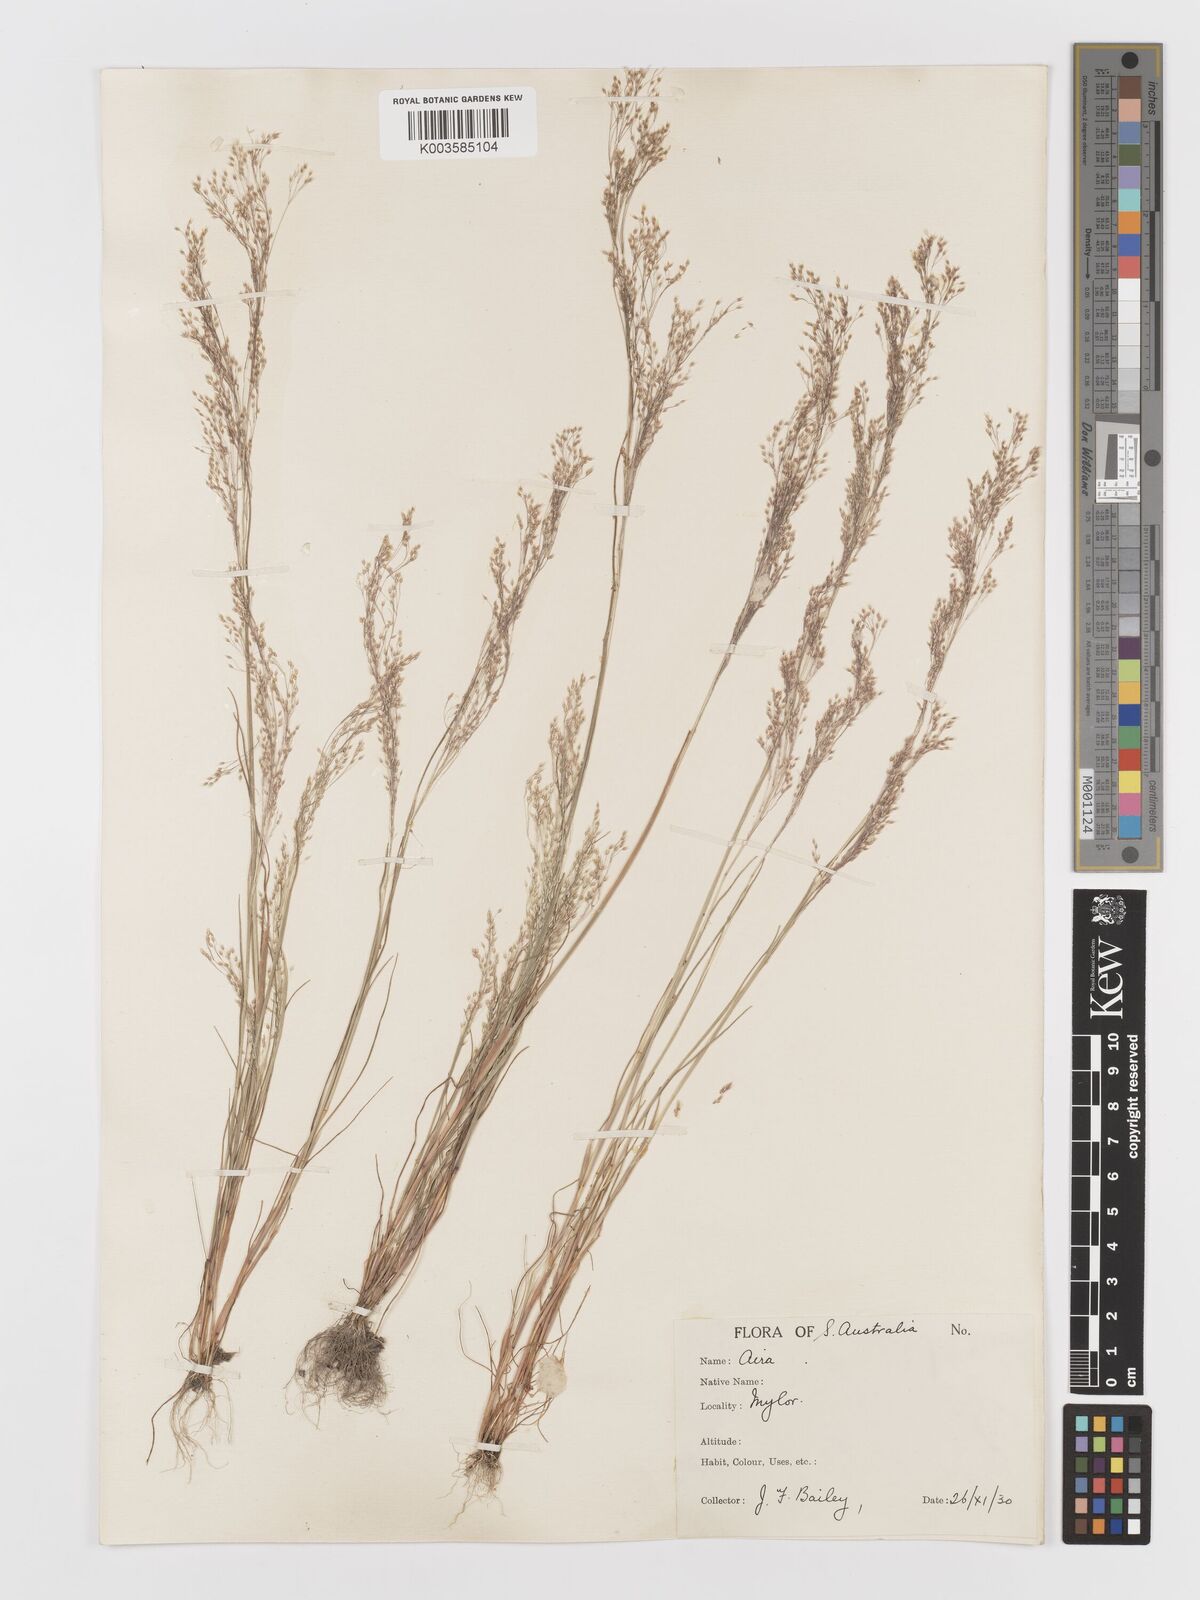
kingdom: Plantae
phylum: Tracheophyta
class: Liliopsida
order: Poales
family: Poaceae
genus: Aira
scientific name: Aira caryophyllea
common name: Silver hairgrass
